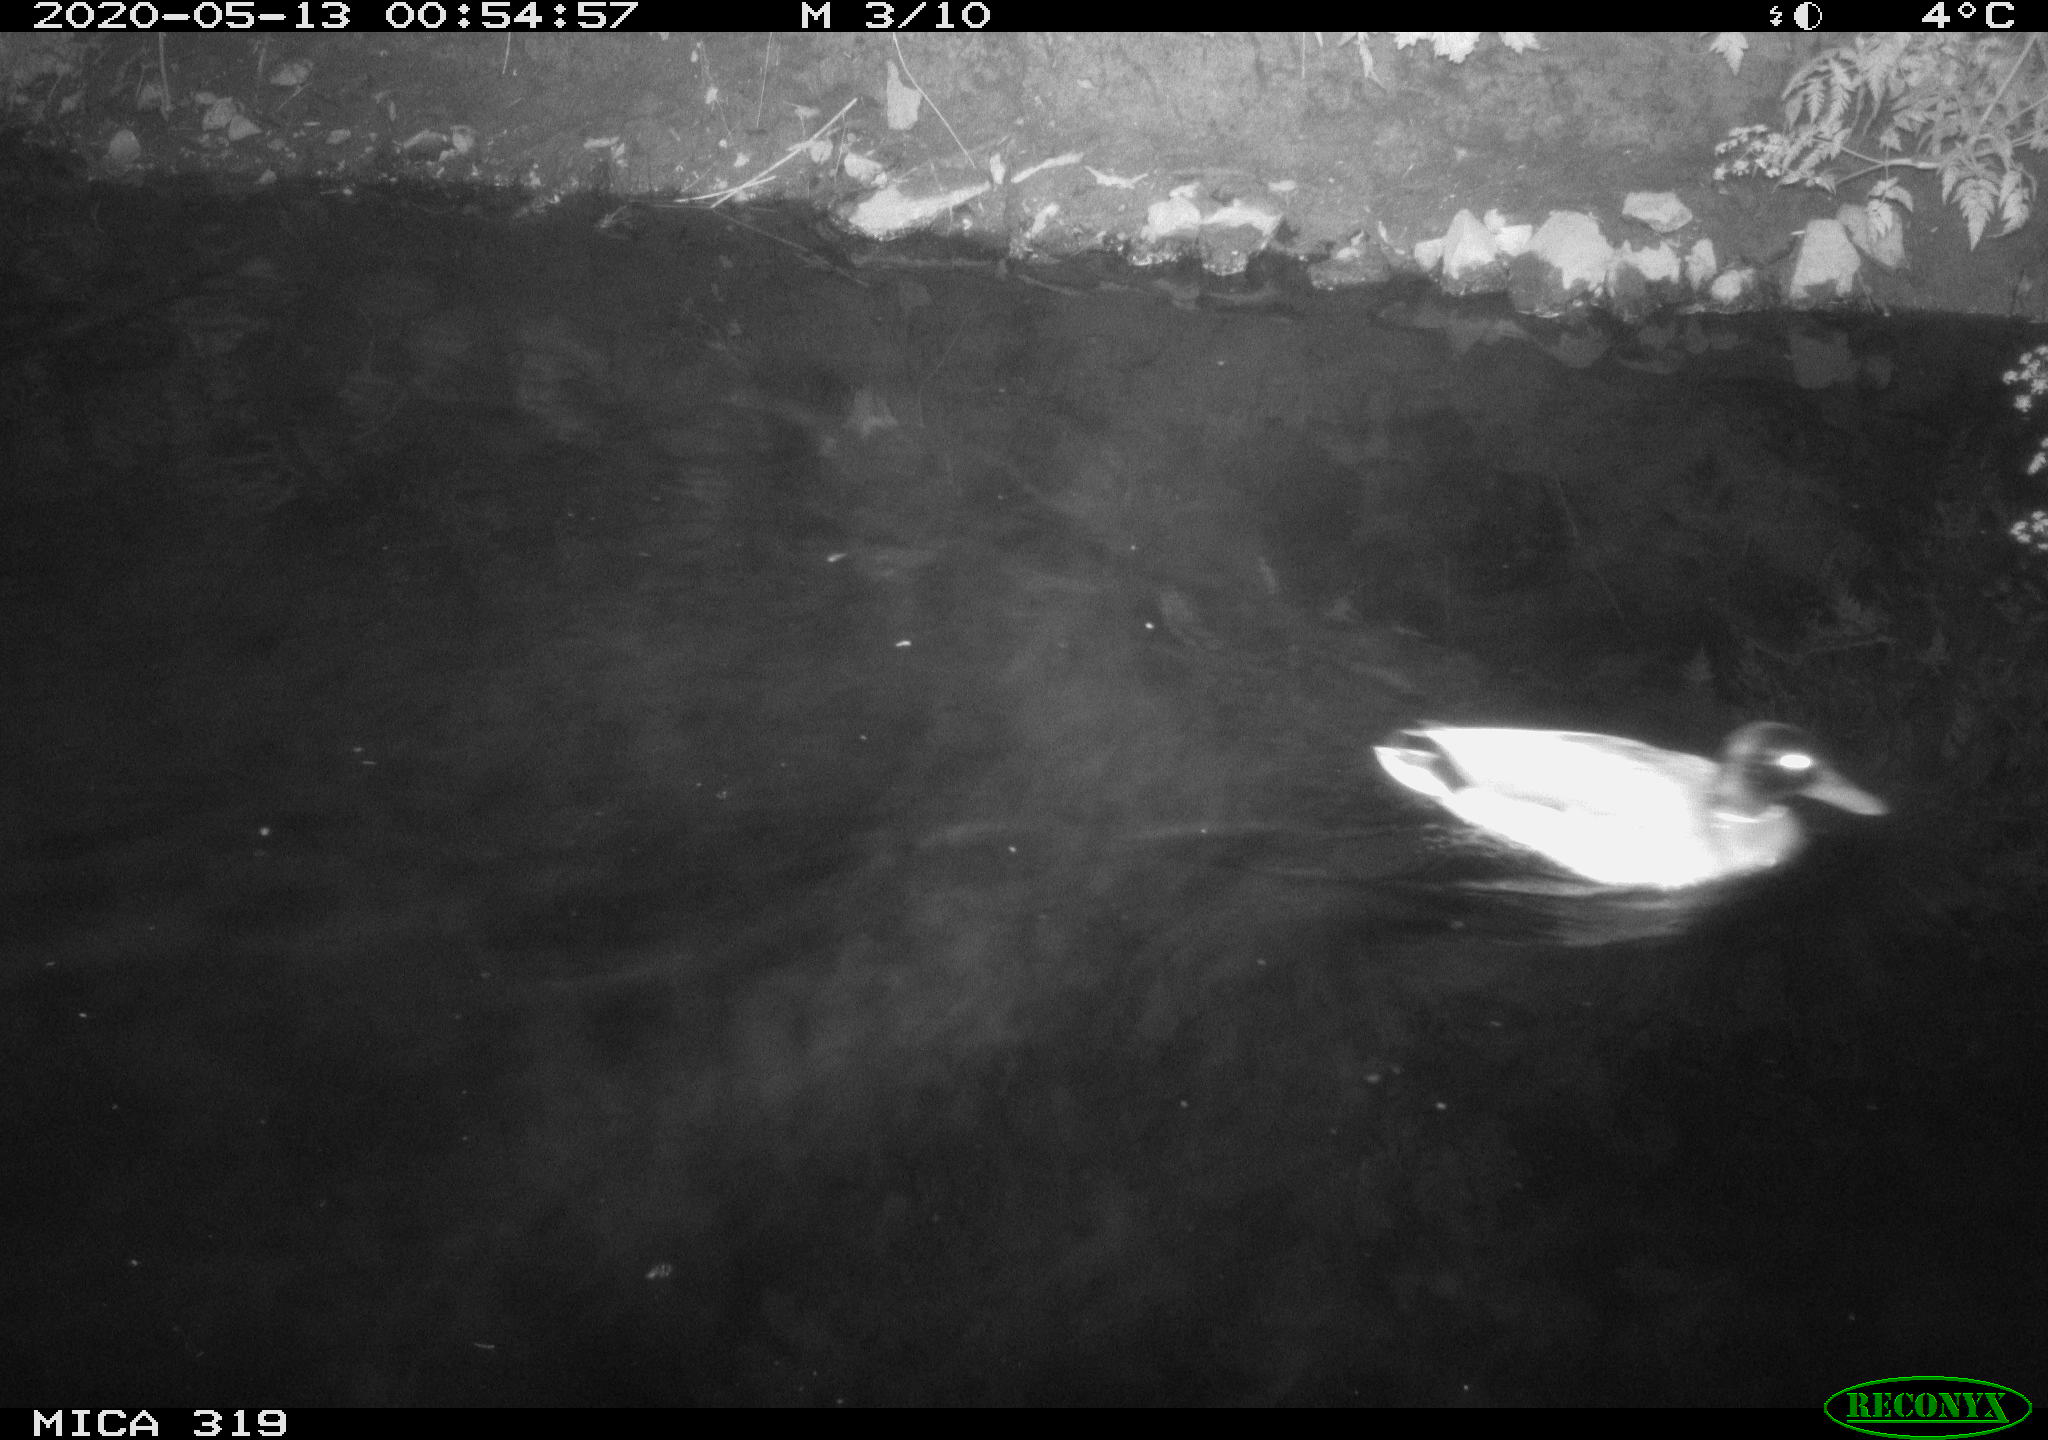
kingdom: Animalia
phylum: Chordata
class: Aves
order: Anseriformes
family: Anatidae
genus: Anas
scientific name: Anas platyrhynchos
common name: Mallard
